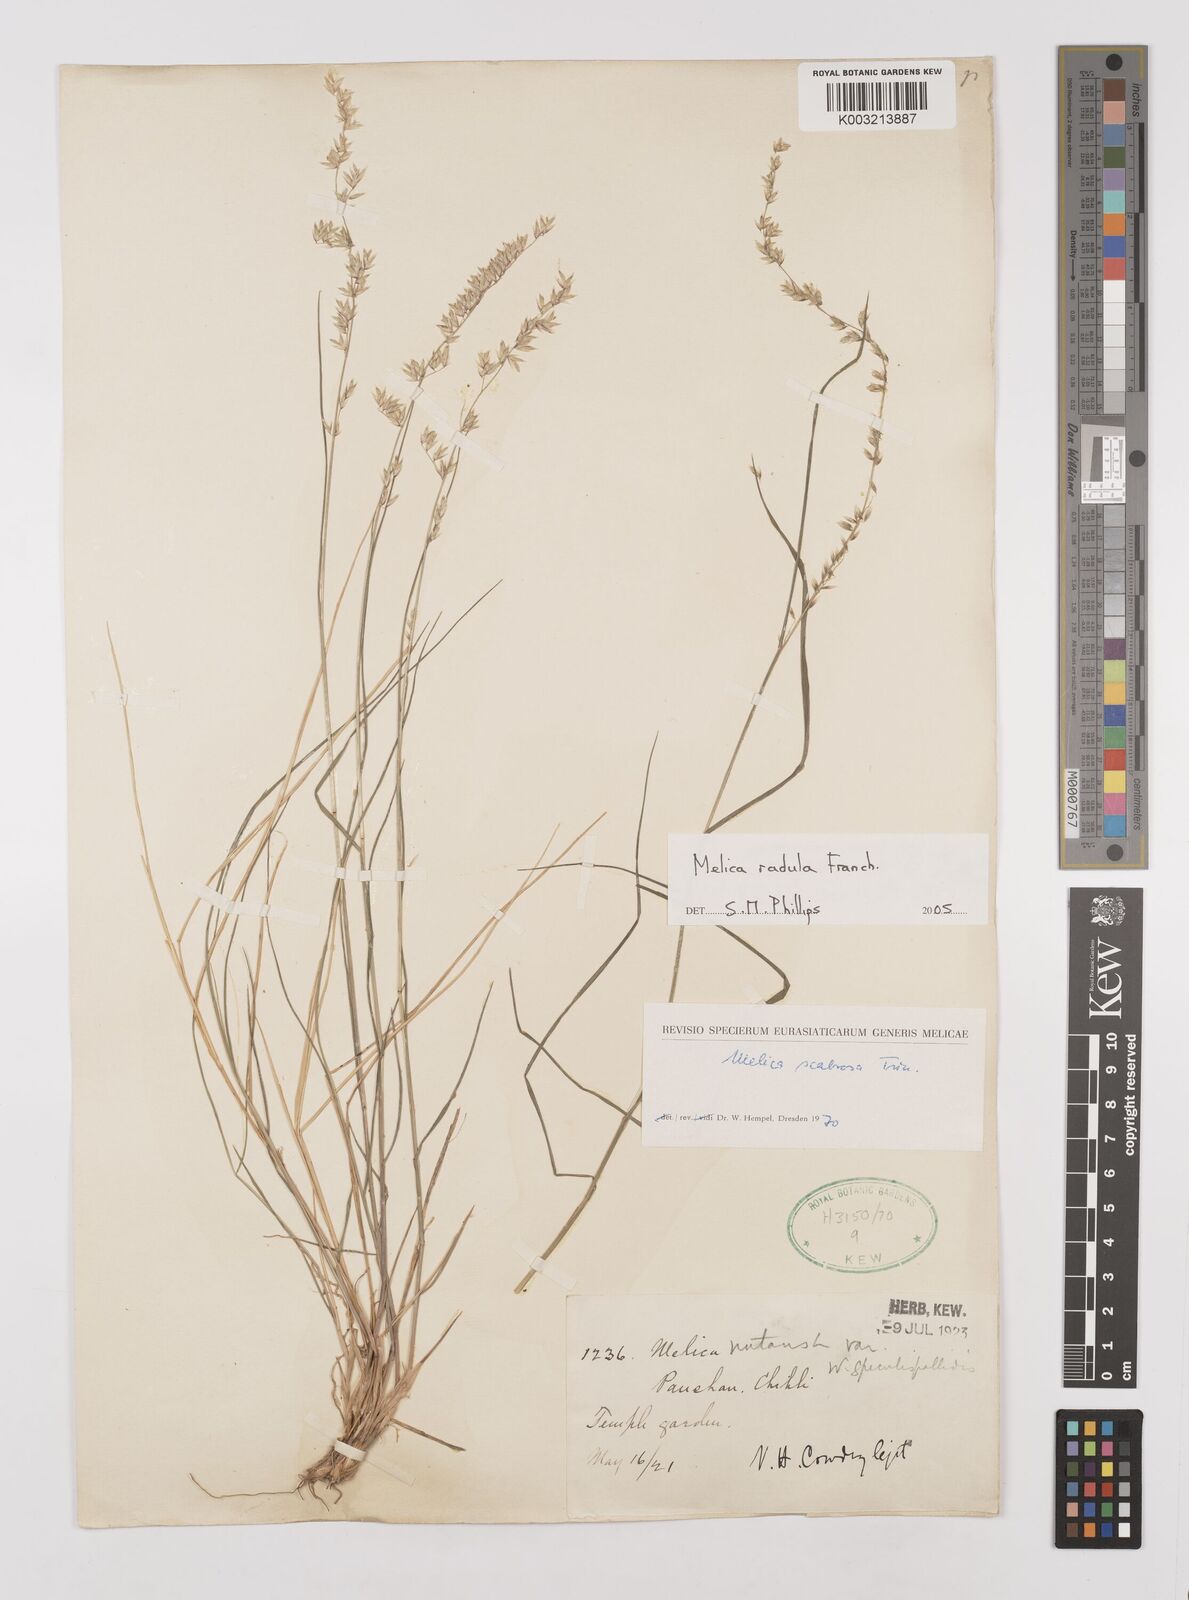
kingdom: Plantae
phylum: Tracheophyta
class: Liliopsida
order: Poales
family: Poaceae
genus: Melica
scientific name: Melica radula
